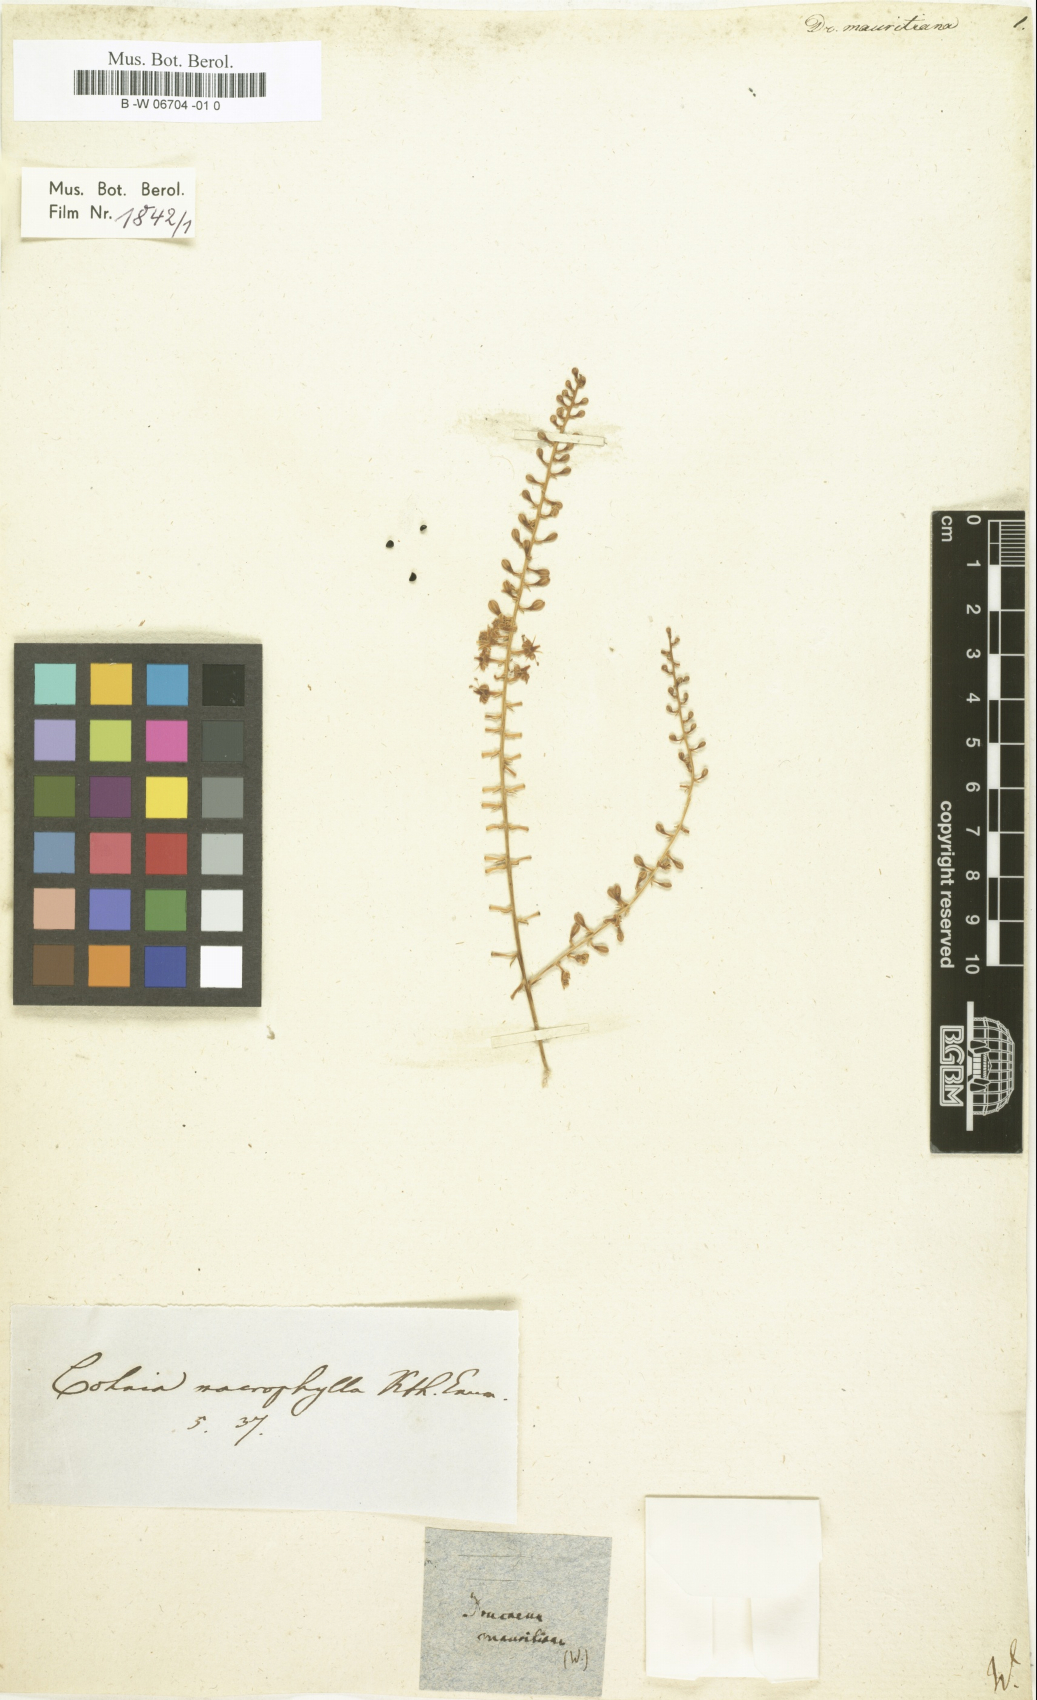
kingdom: Plantae
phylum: Tracheophyta
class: Liliopsida
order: Asparagales
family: Asparagaceae
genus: Dracaena
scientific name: Dracaena mauritiana
